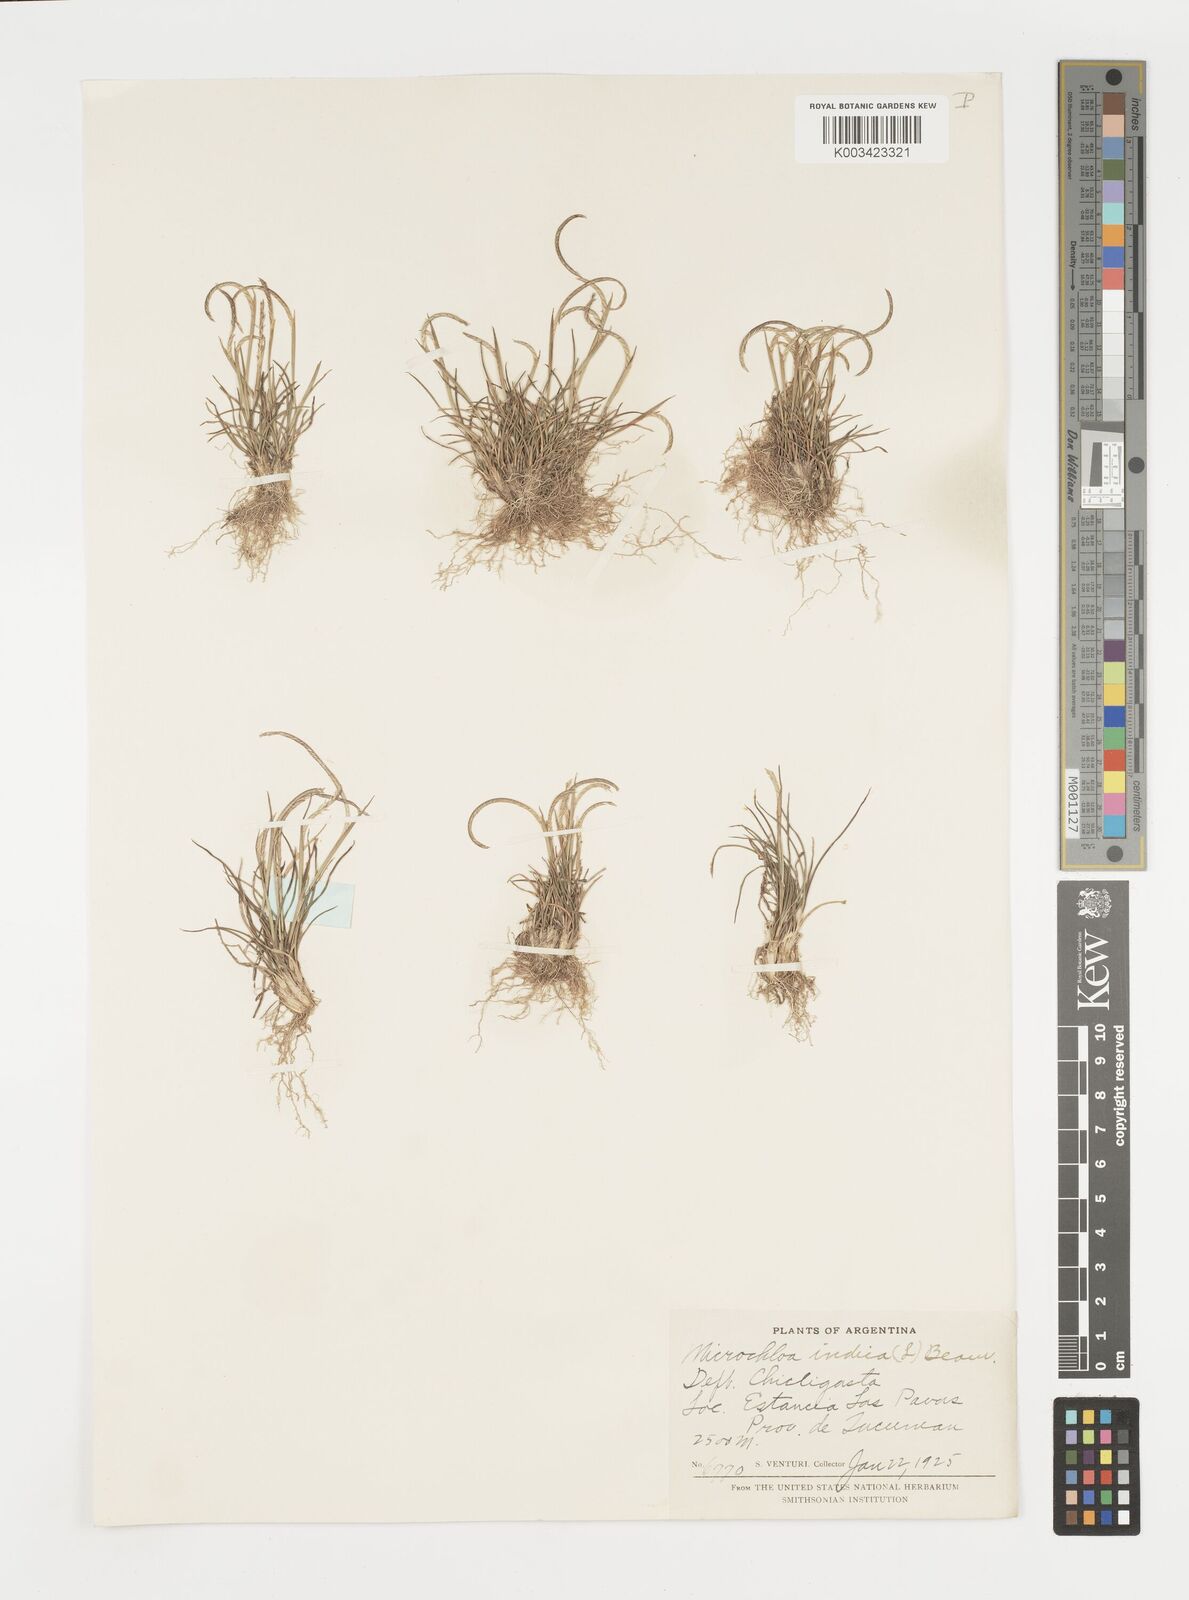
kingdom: Plantae
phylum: Tracheophyta
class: Liliopsida
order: Poales
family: Poaceae
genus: Microchloa
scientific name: Microchloa kunthii
